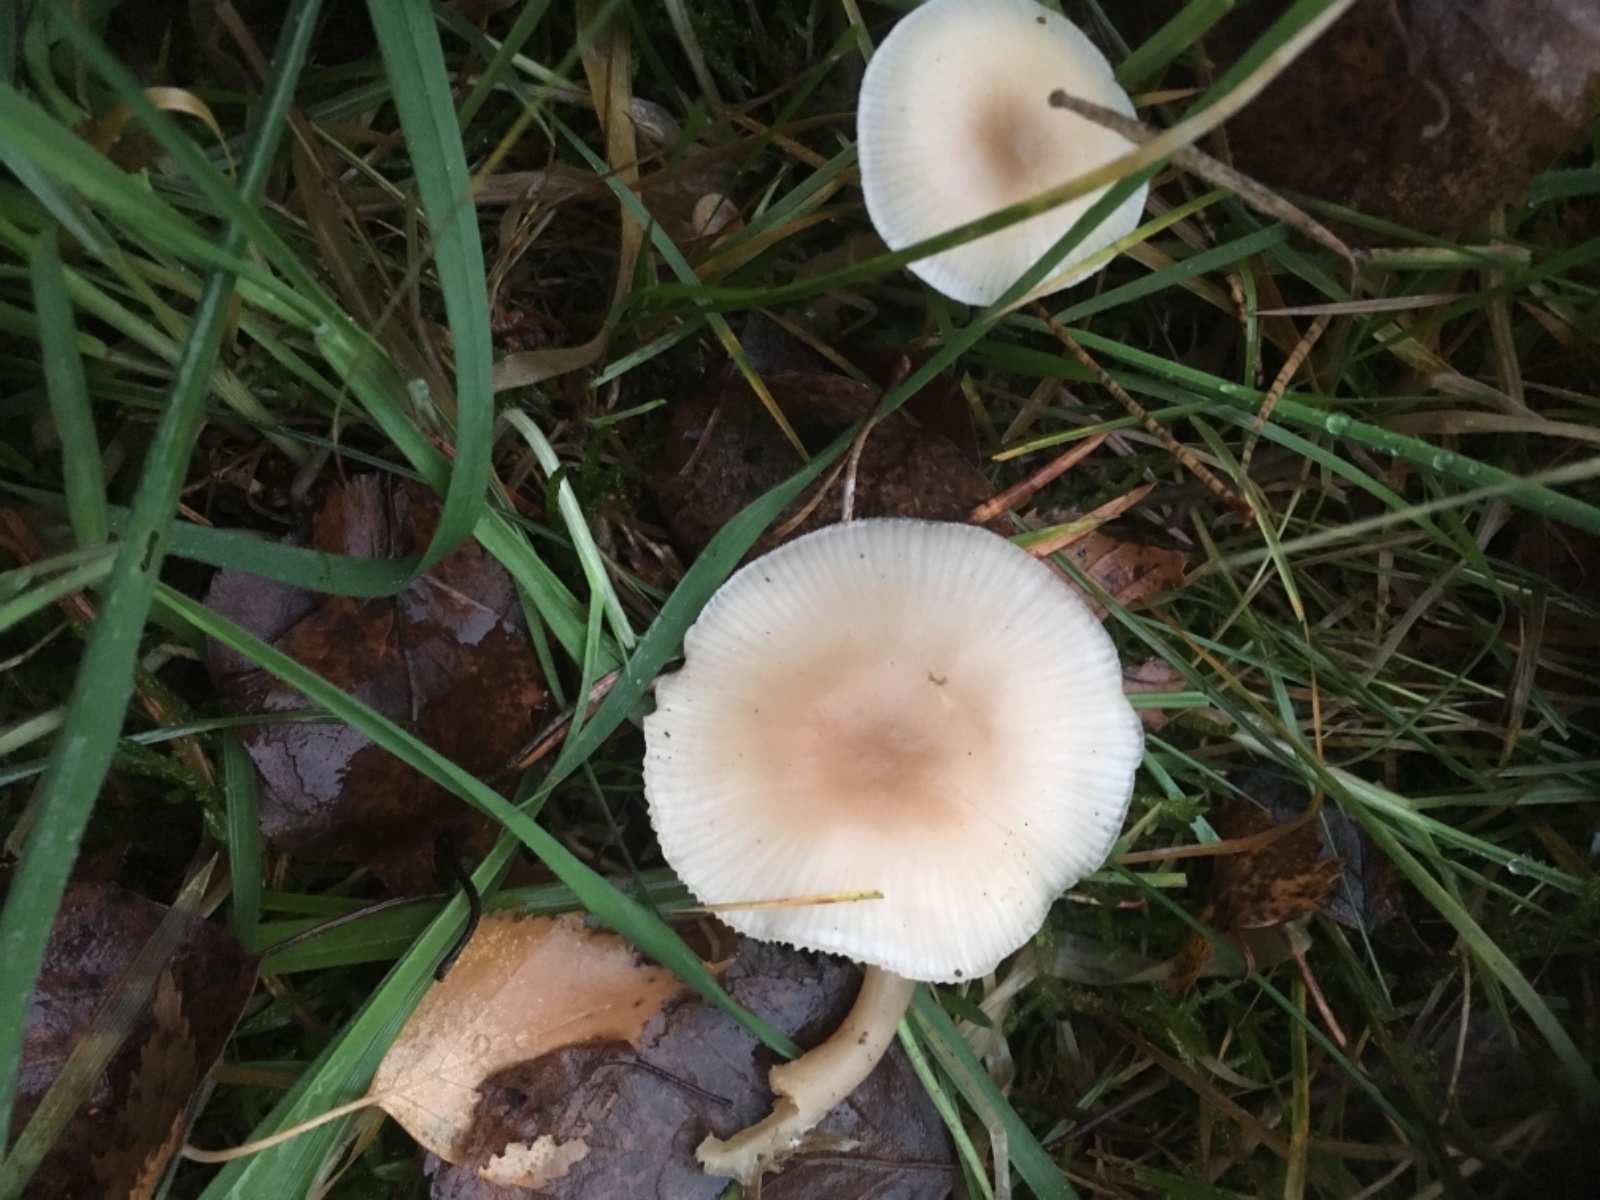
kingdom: Fungi
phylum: Basidiomycota
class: Agaricomycetes
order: Agaricales
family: Tricholomataceae
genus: Clitocybe
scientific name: Clitocybe
